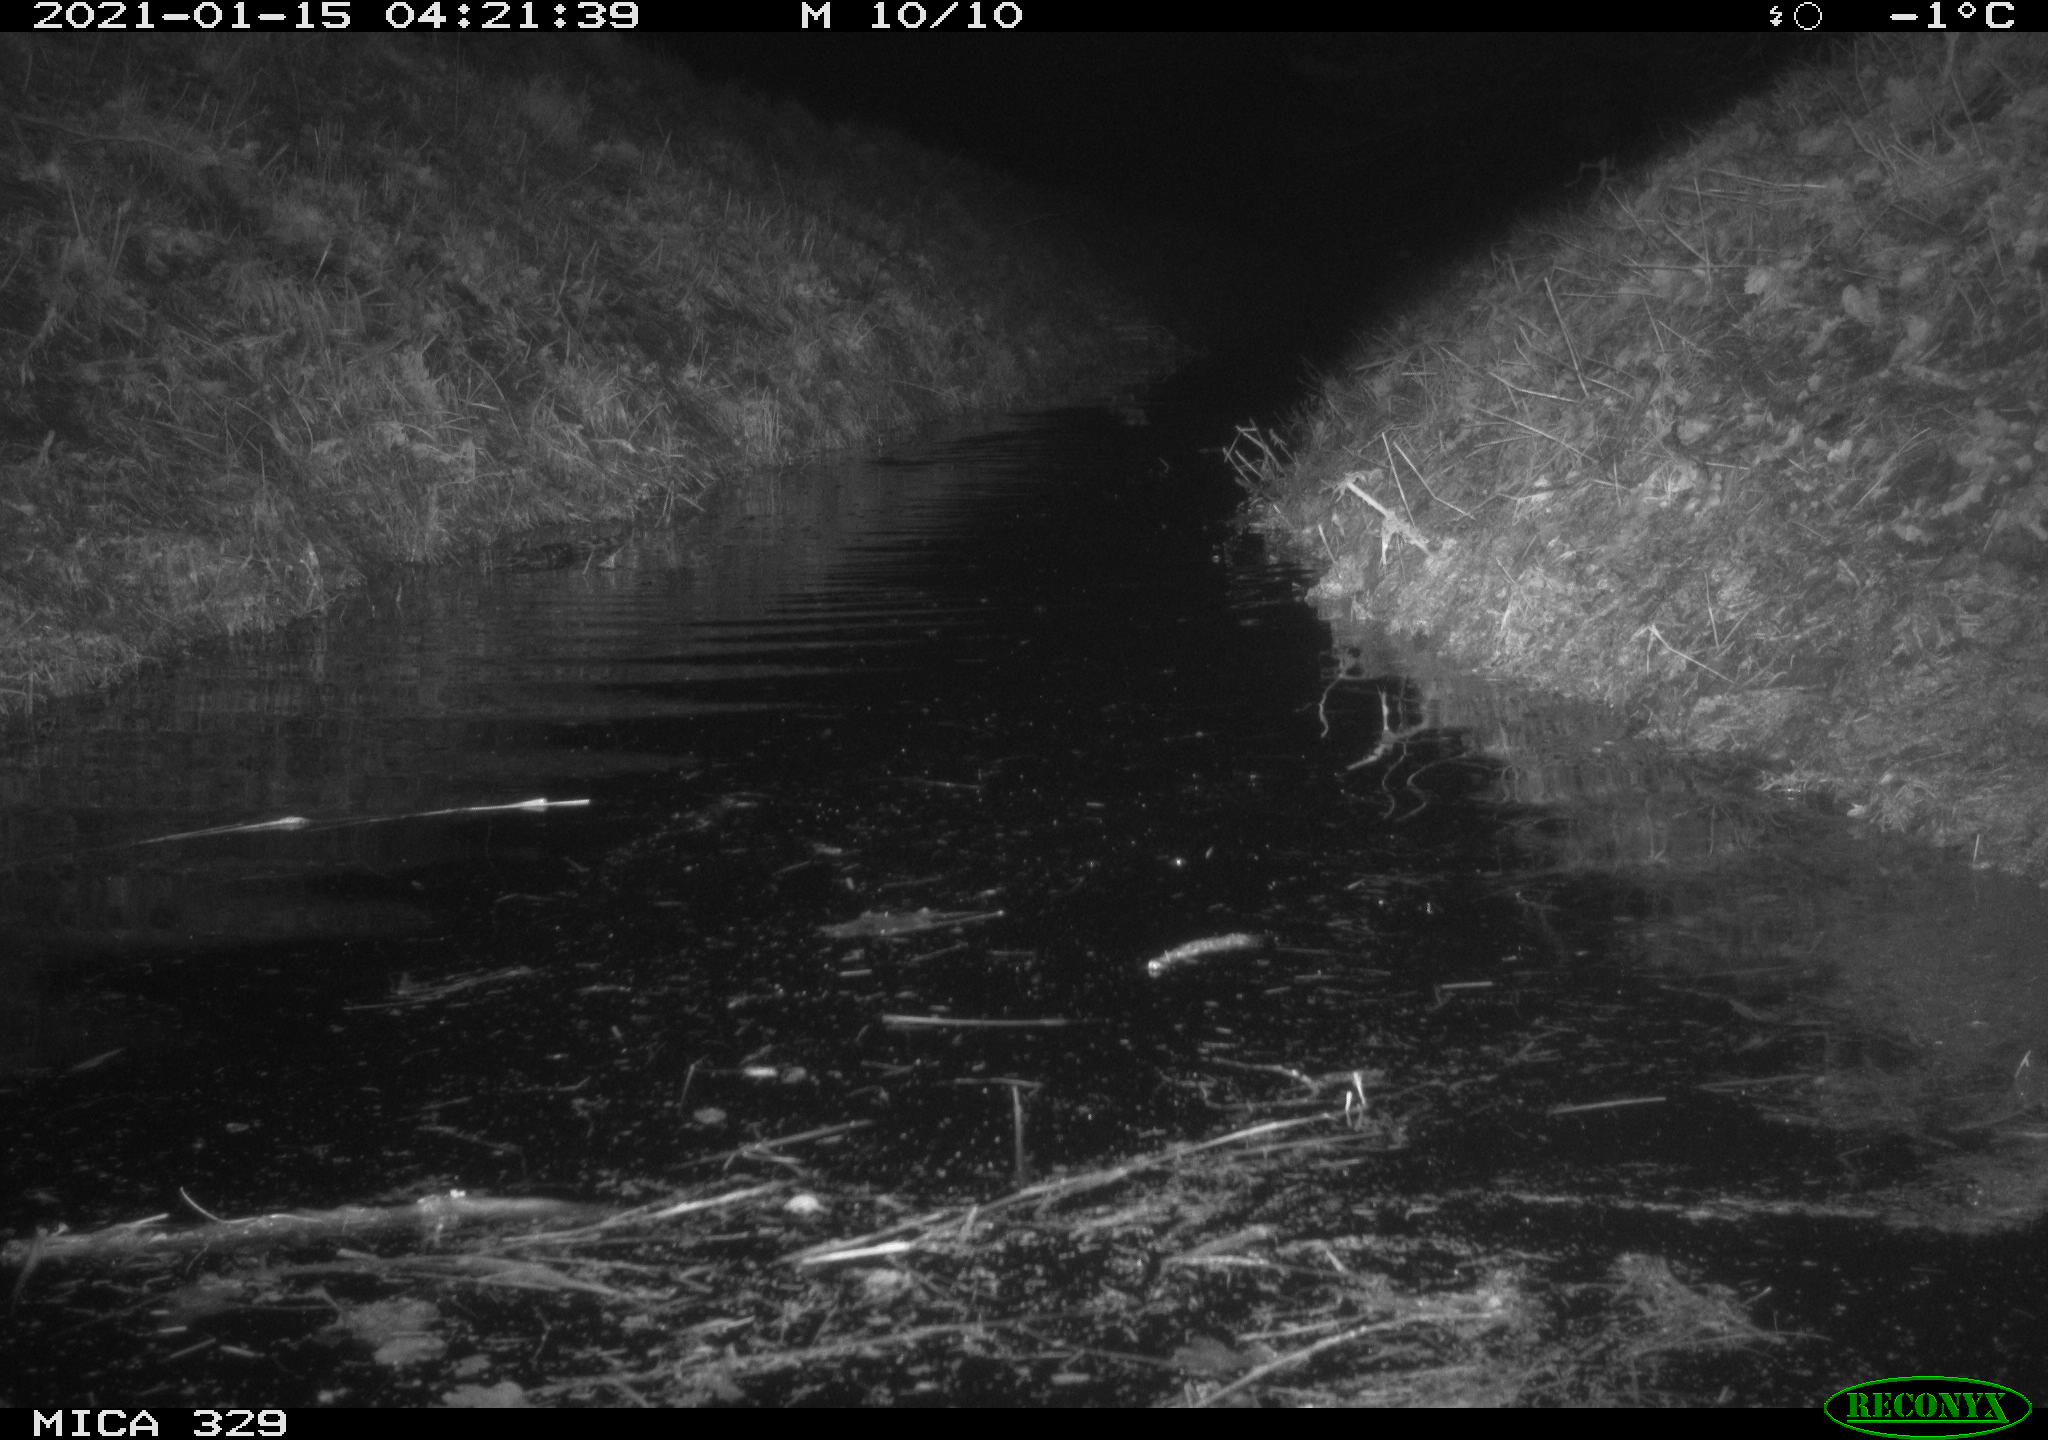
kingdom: Animalia
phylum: Chordata
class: Mammalia
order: Rodentia
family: Myocastoridae
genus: Myocastor
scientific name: Myocastor coypus
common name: Coypu
